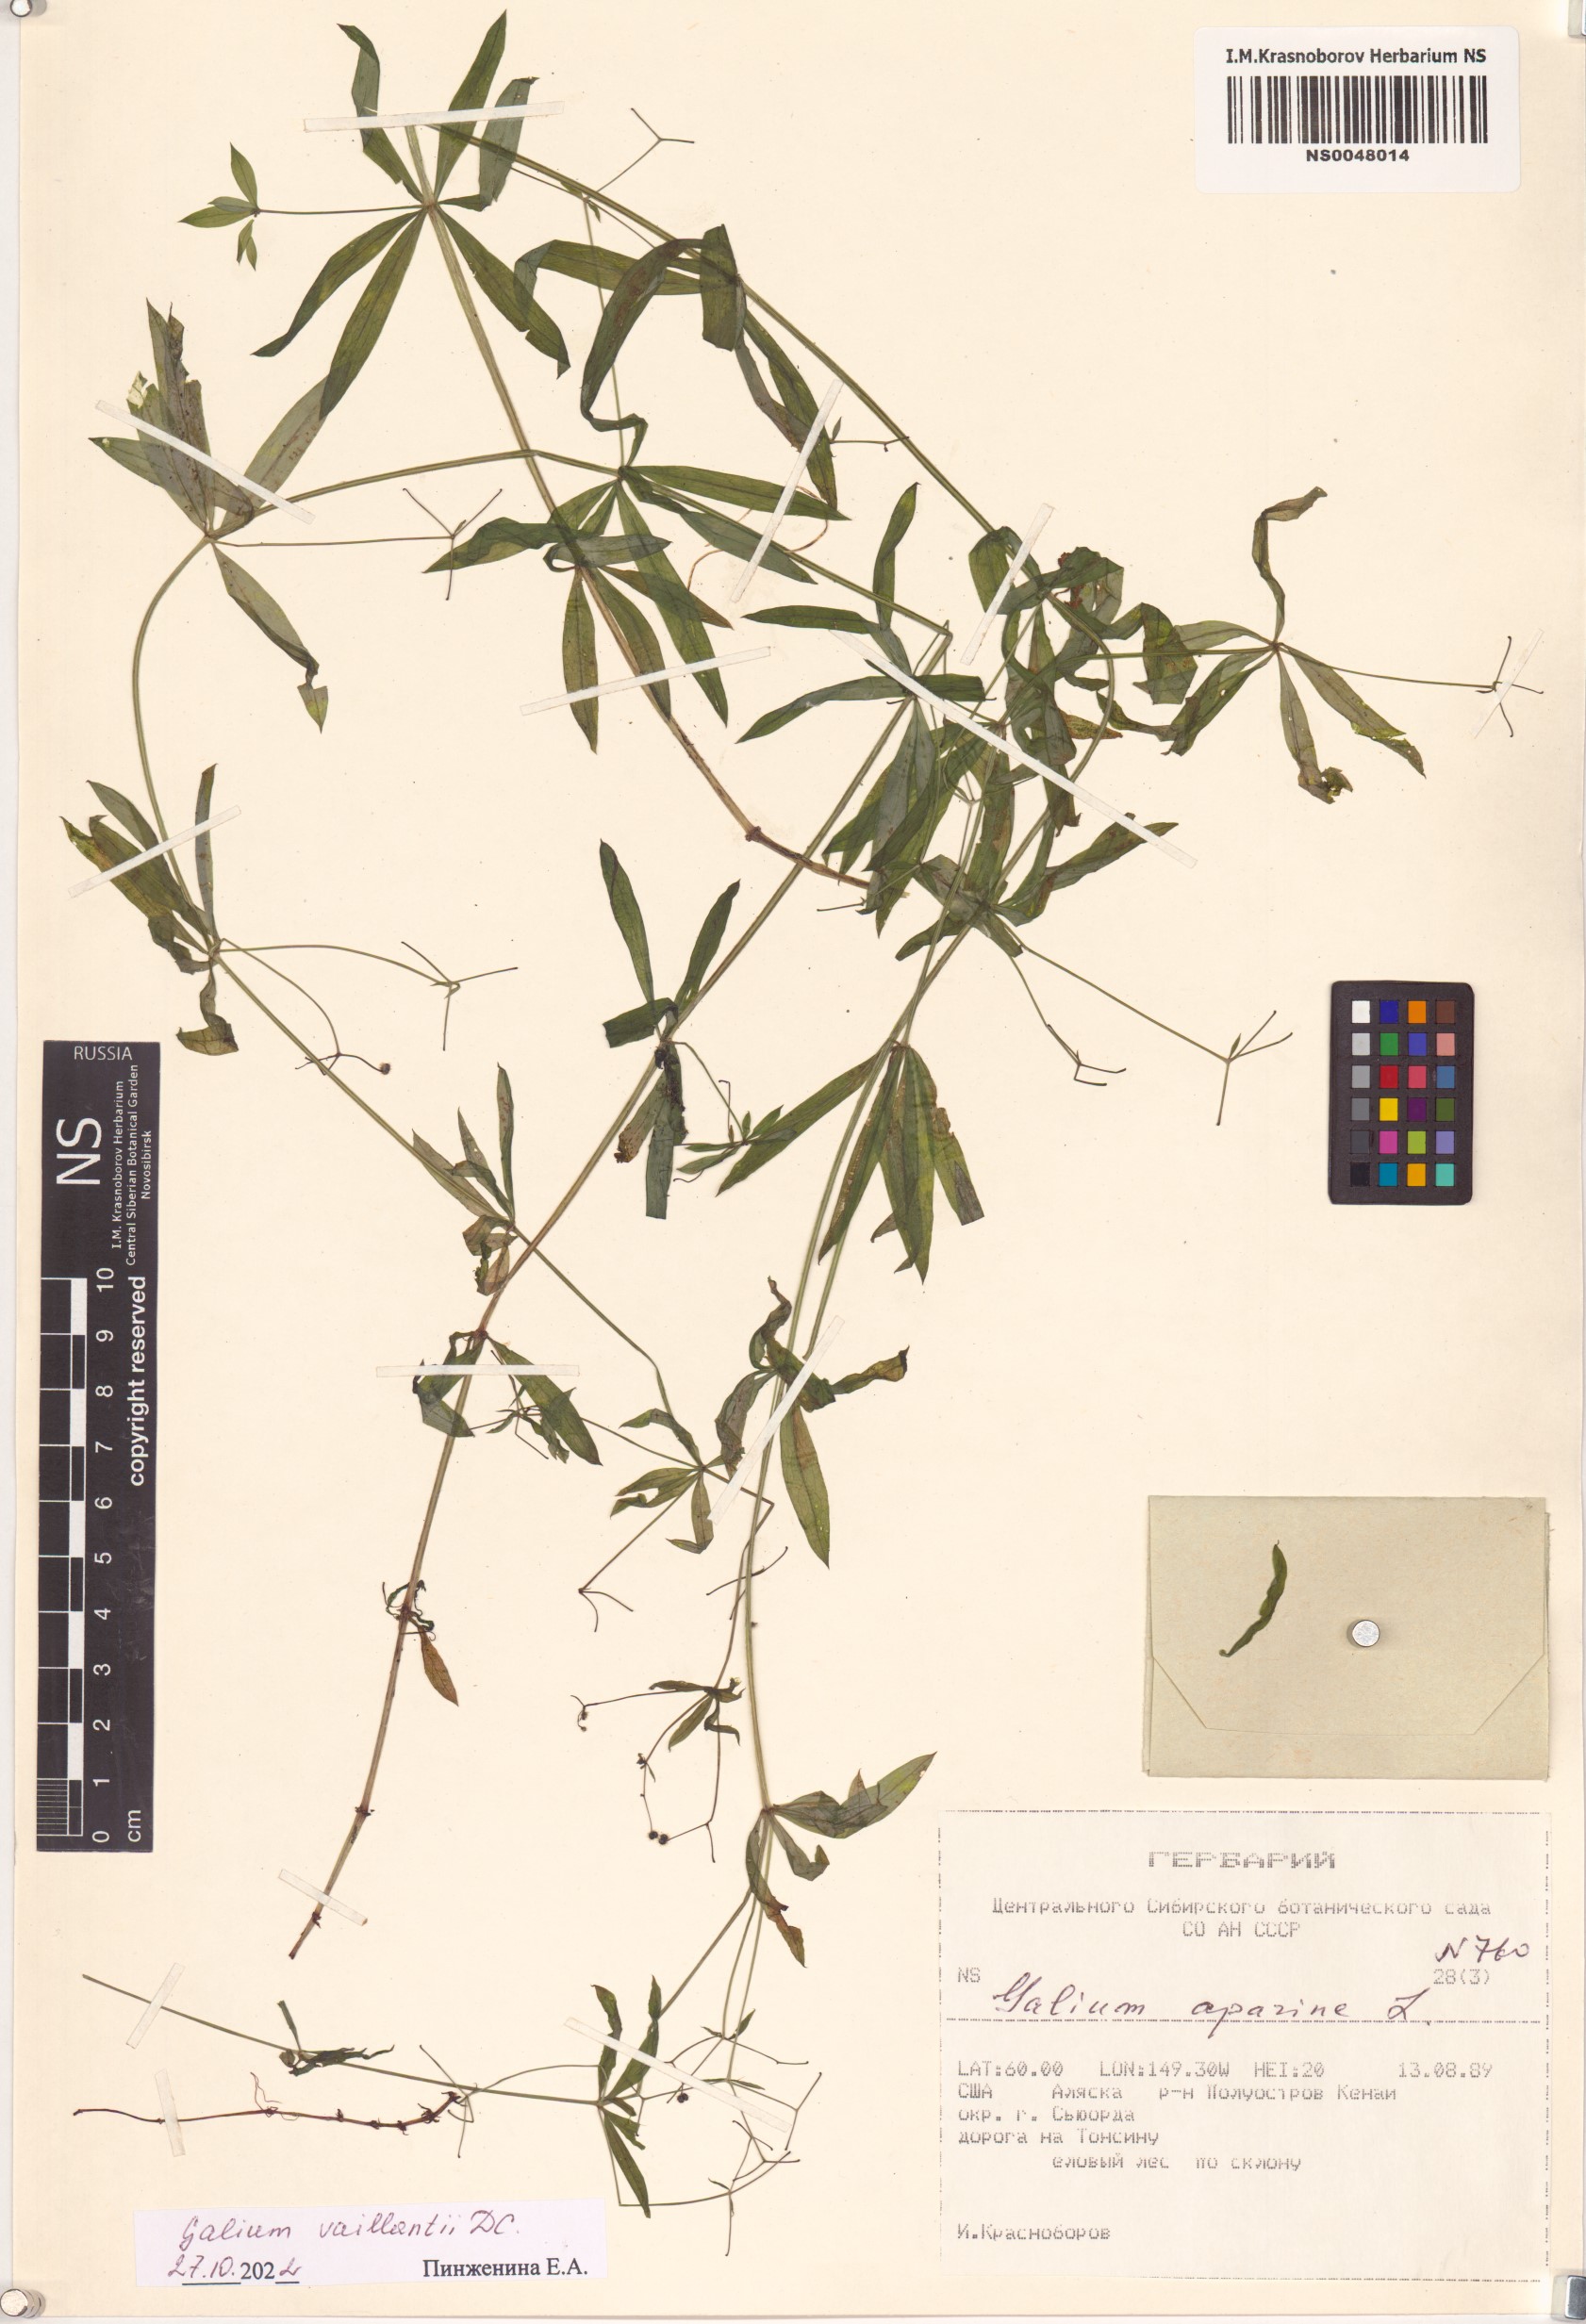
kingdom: Plantae
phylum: Tracheophyta
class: Magnoliopsida
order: Gentianales
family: Rubiaceae
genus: Galium
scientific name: Galium spurium
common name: False cleavers
